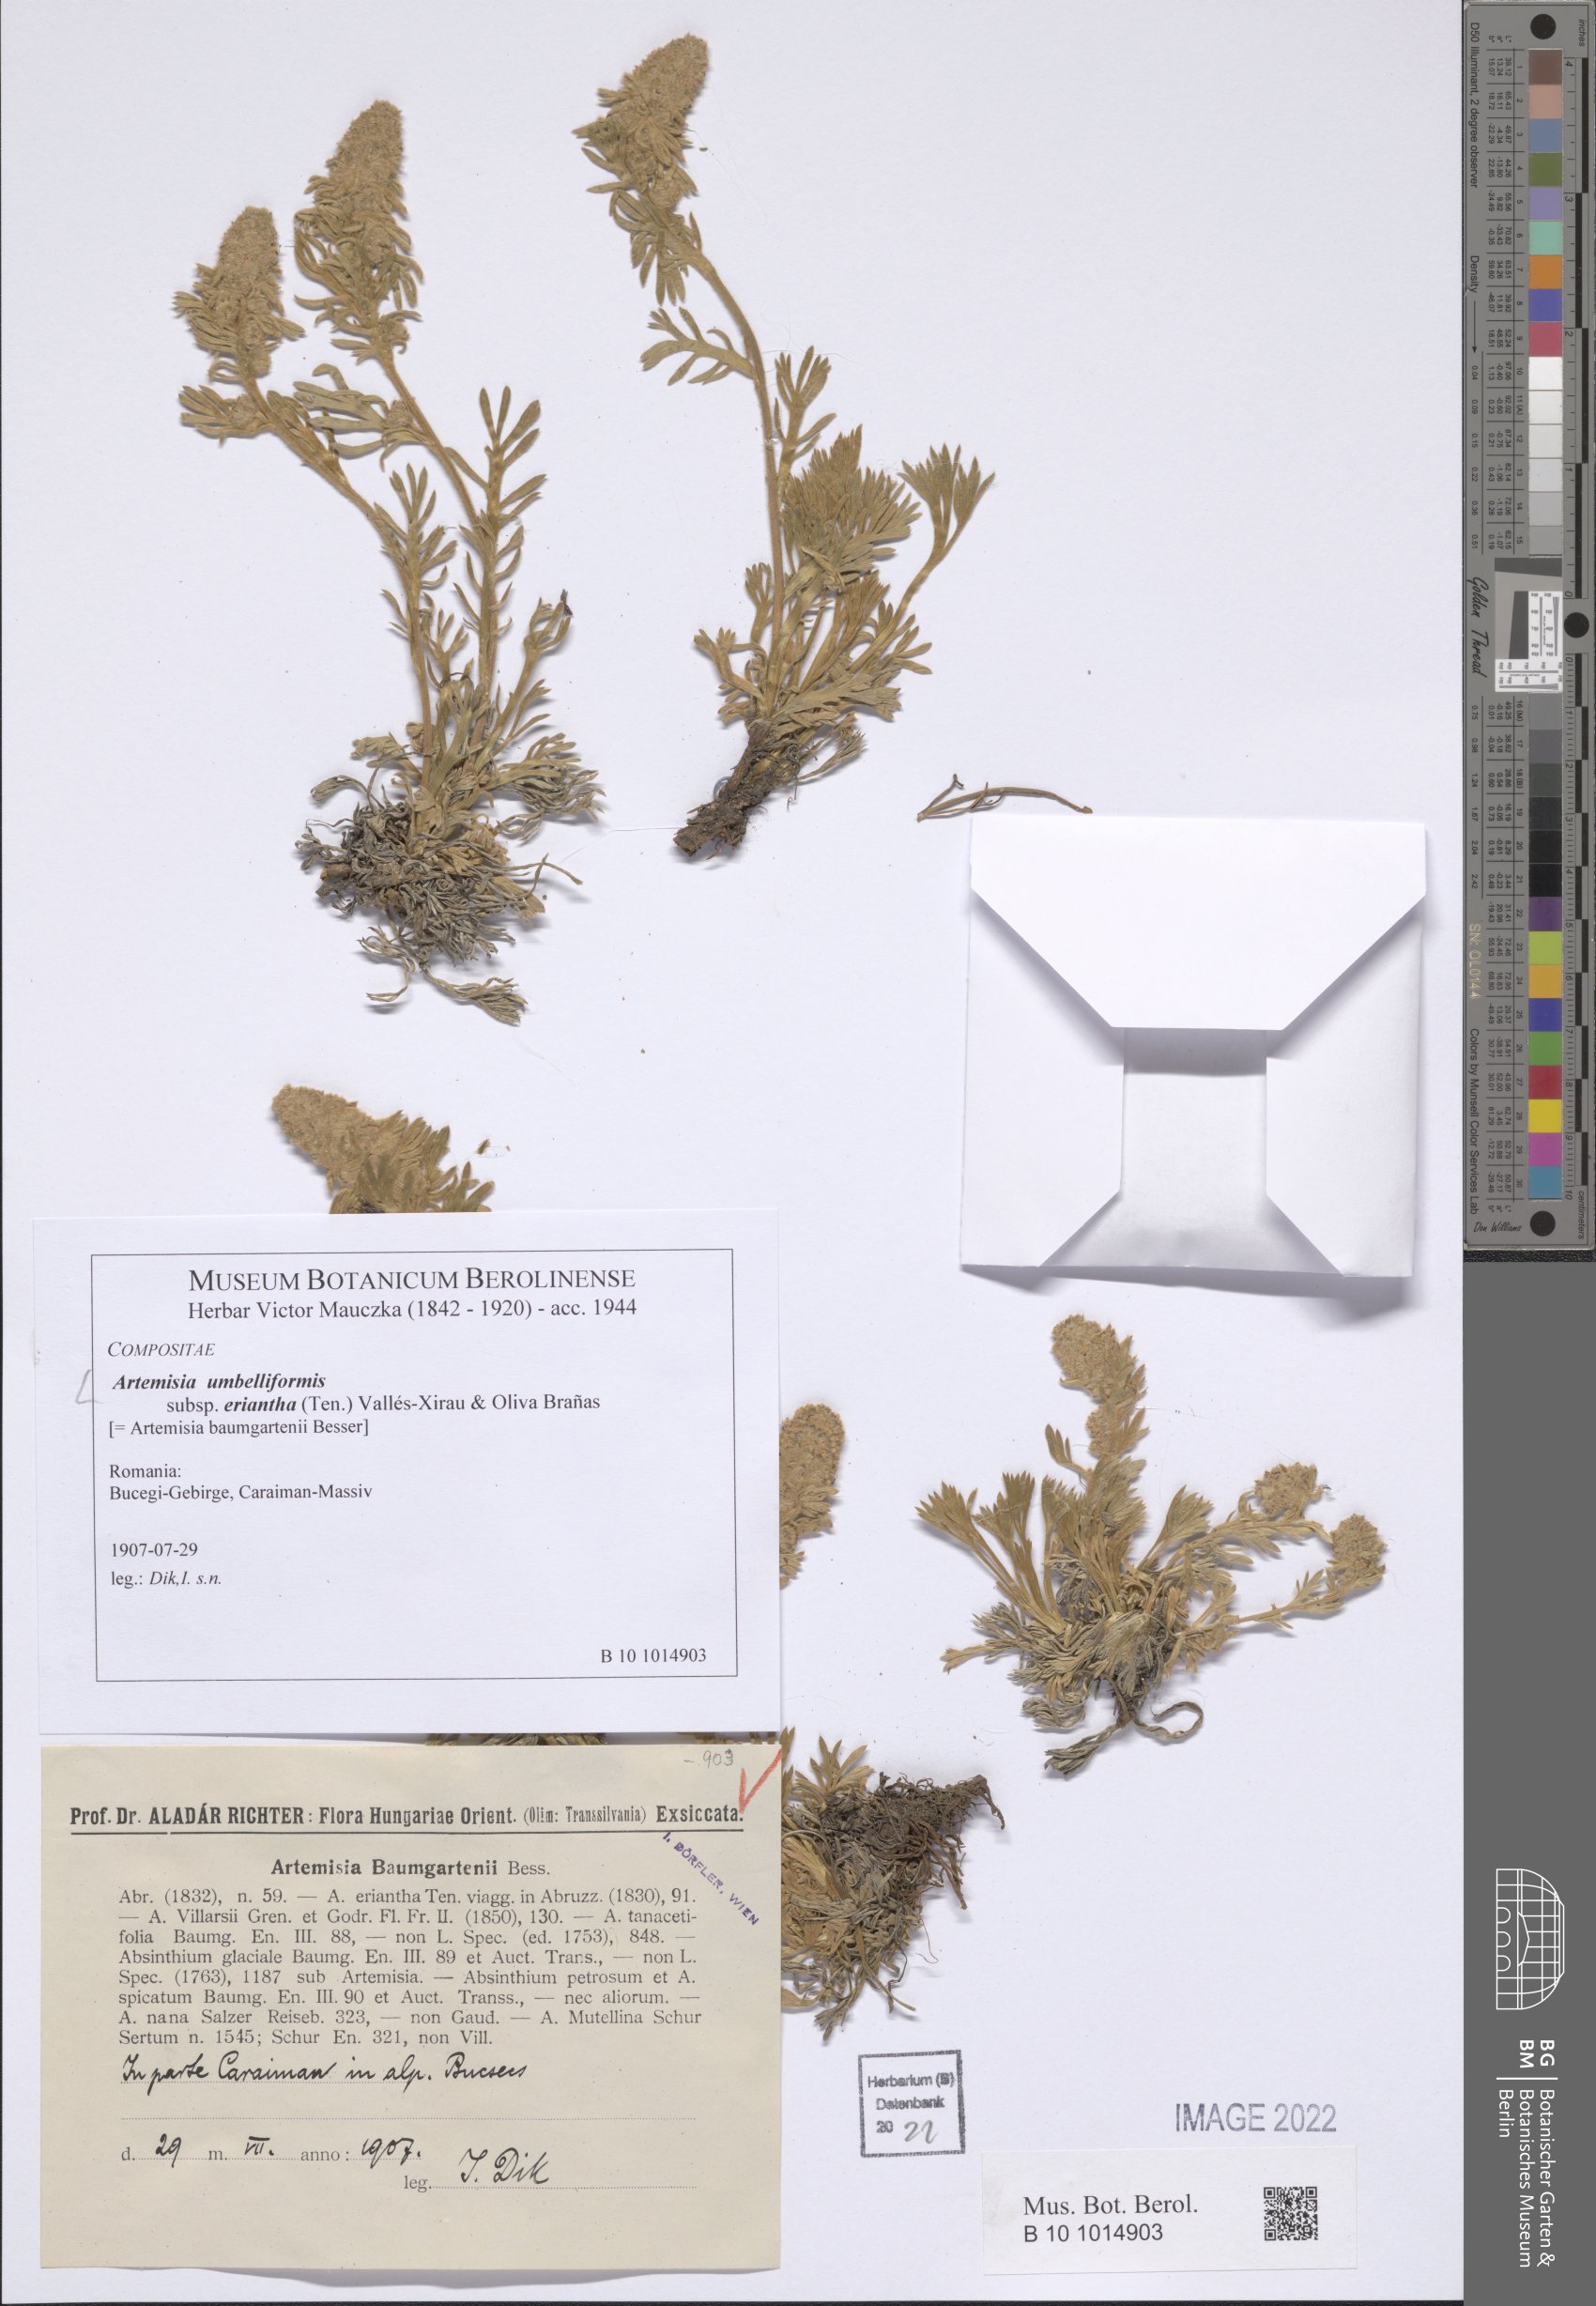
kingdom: Plantae
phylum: Tracheophyta
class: Magnoliopsida
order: Asterales
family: Asteraceae
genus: Artemisia
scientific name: Artemisia eriantha
